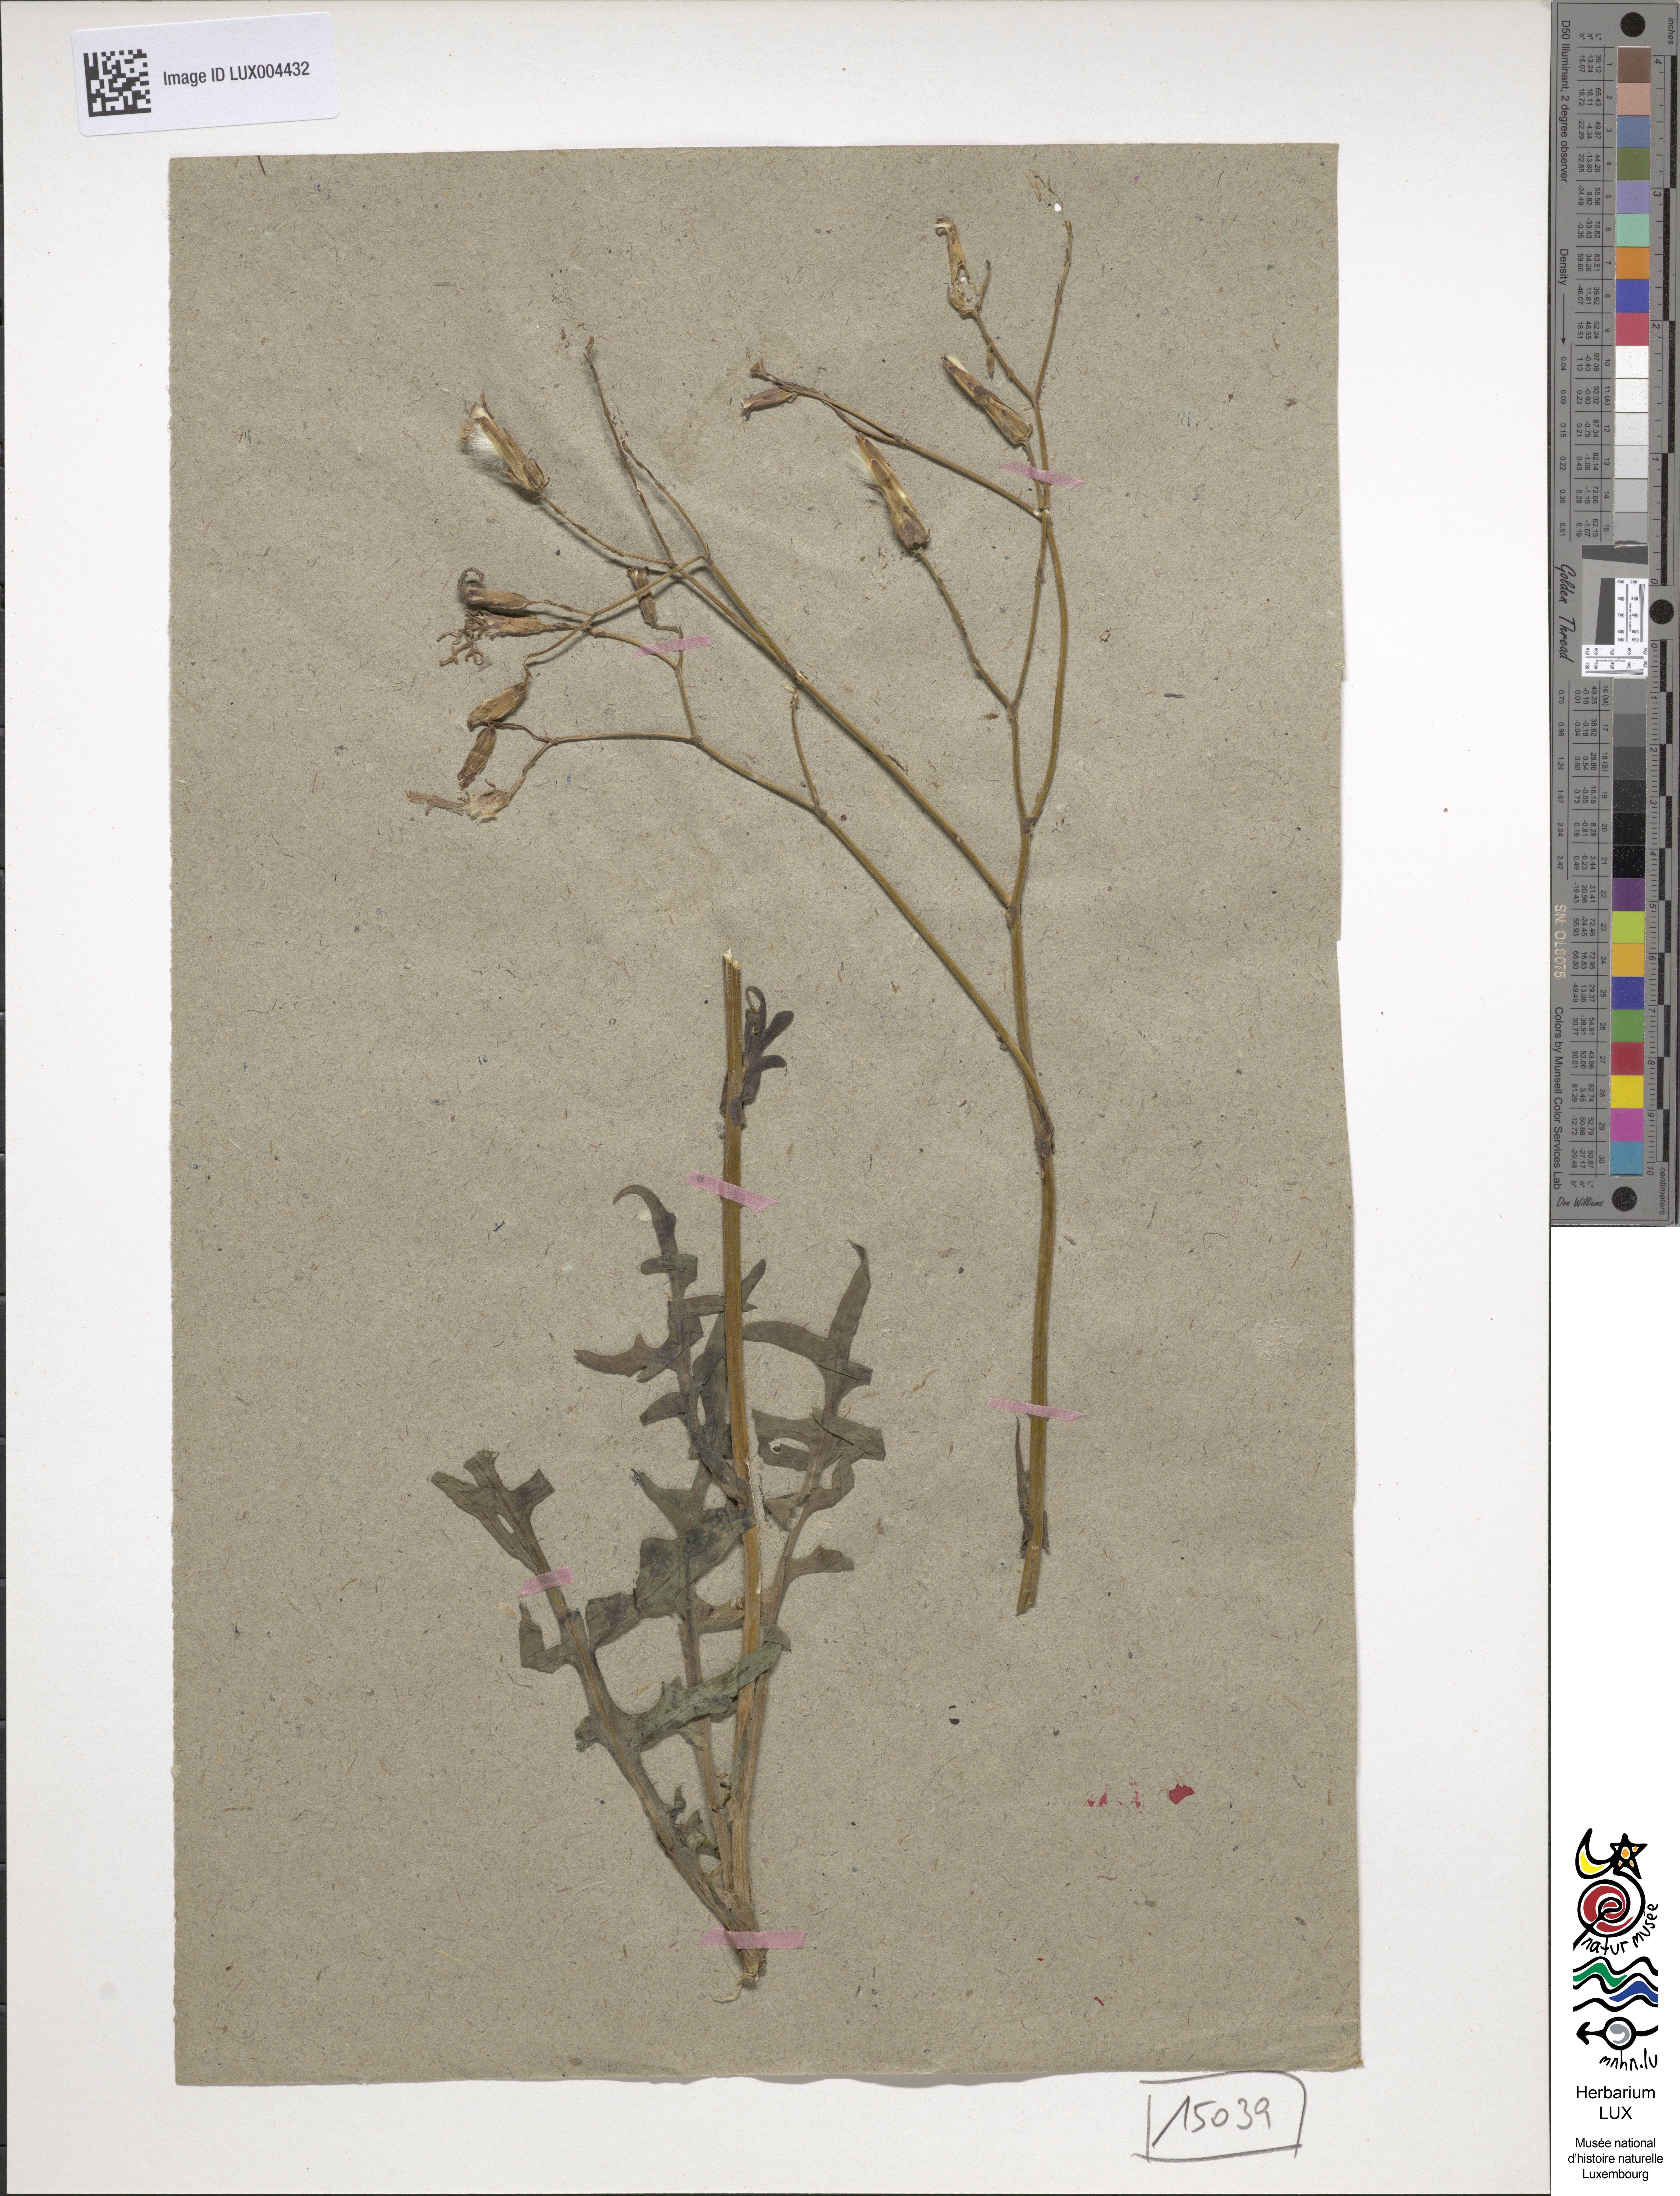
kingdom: Plantae
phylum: Tracheophyta
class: Magnoliopsida
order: Asterales
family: Asteraceae
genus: Lactuca
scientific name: Lactuca perennis
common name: Mountain lettuce
